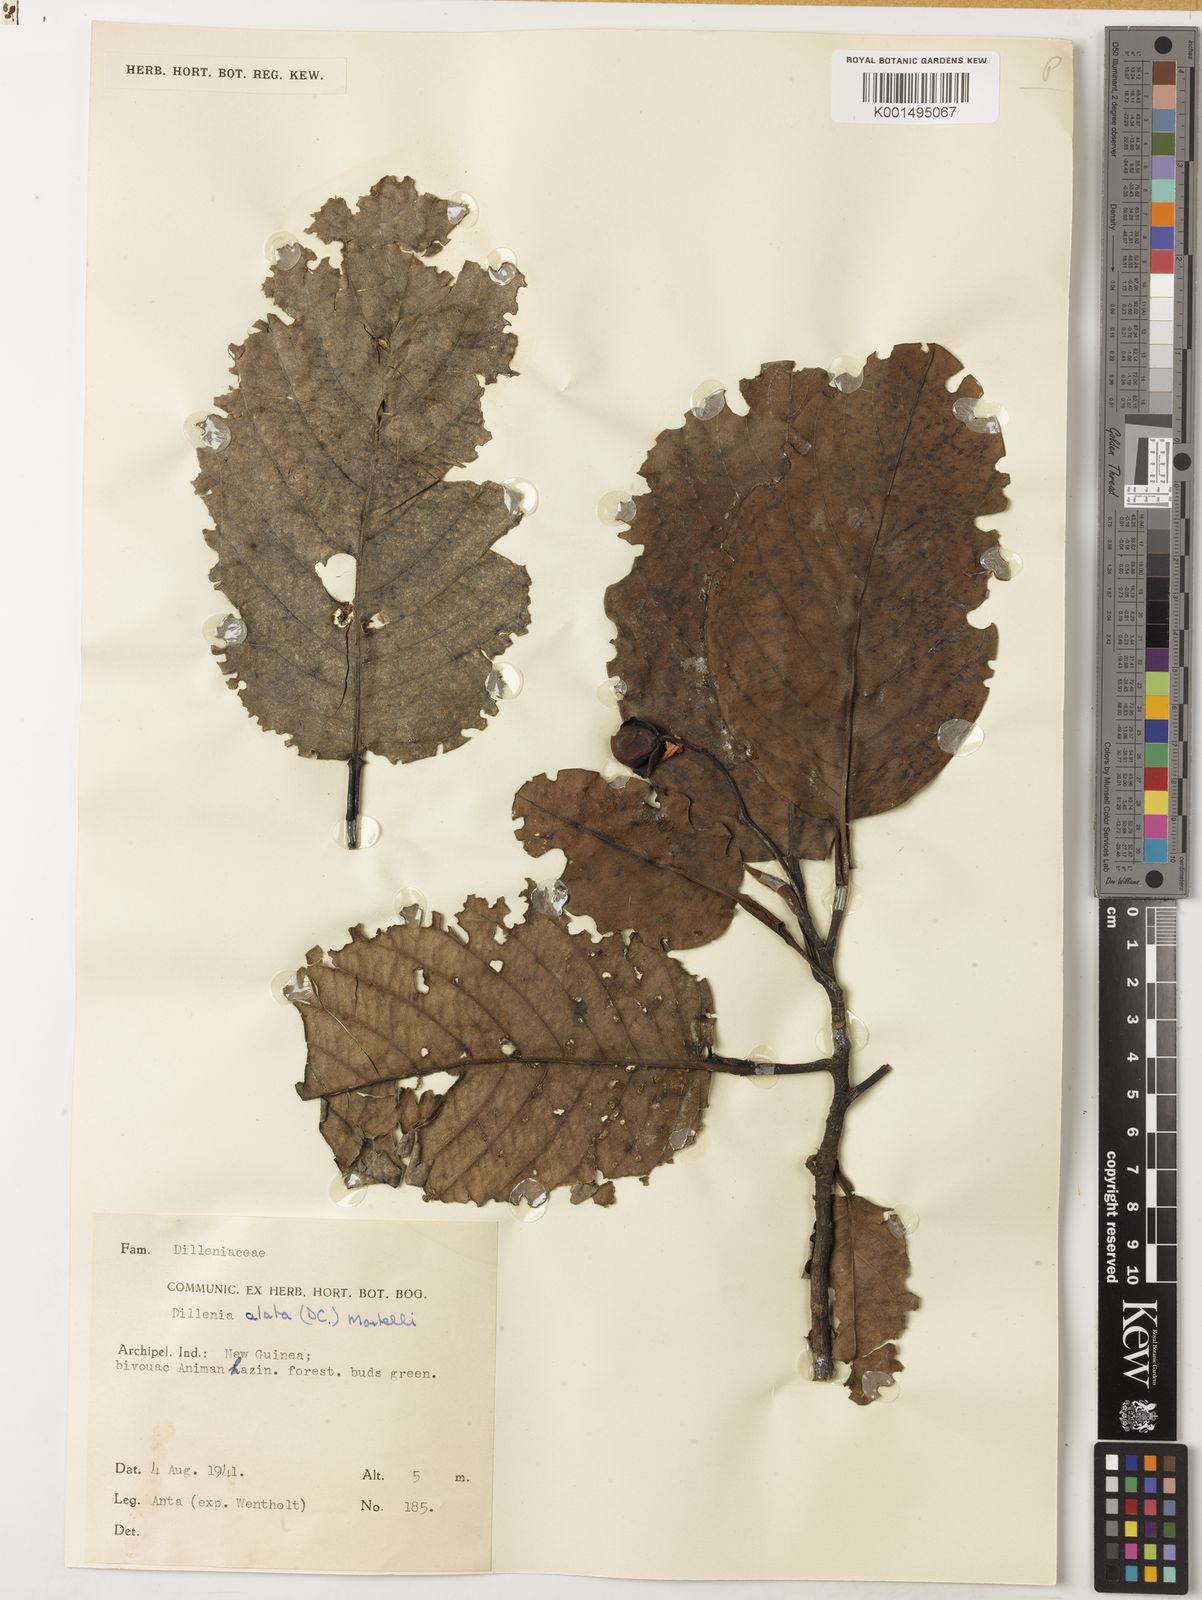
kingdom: Plantae
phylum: Tracheophyta
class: Magnoliopsida
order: Dilleniales
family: Dilleniaceae
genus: Dillenia
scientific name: Dillenia alata
